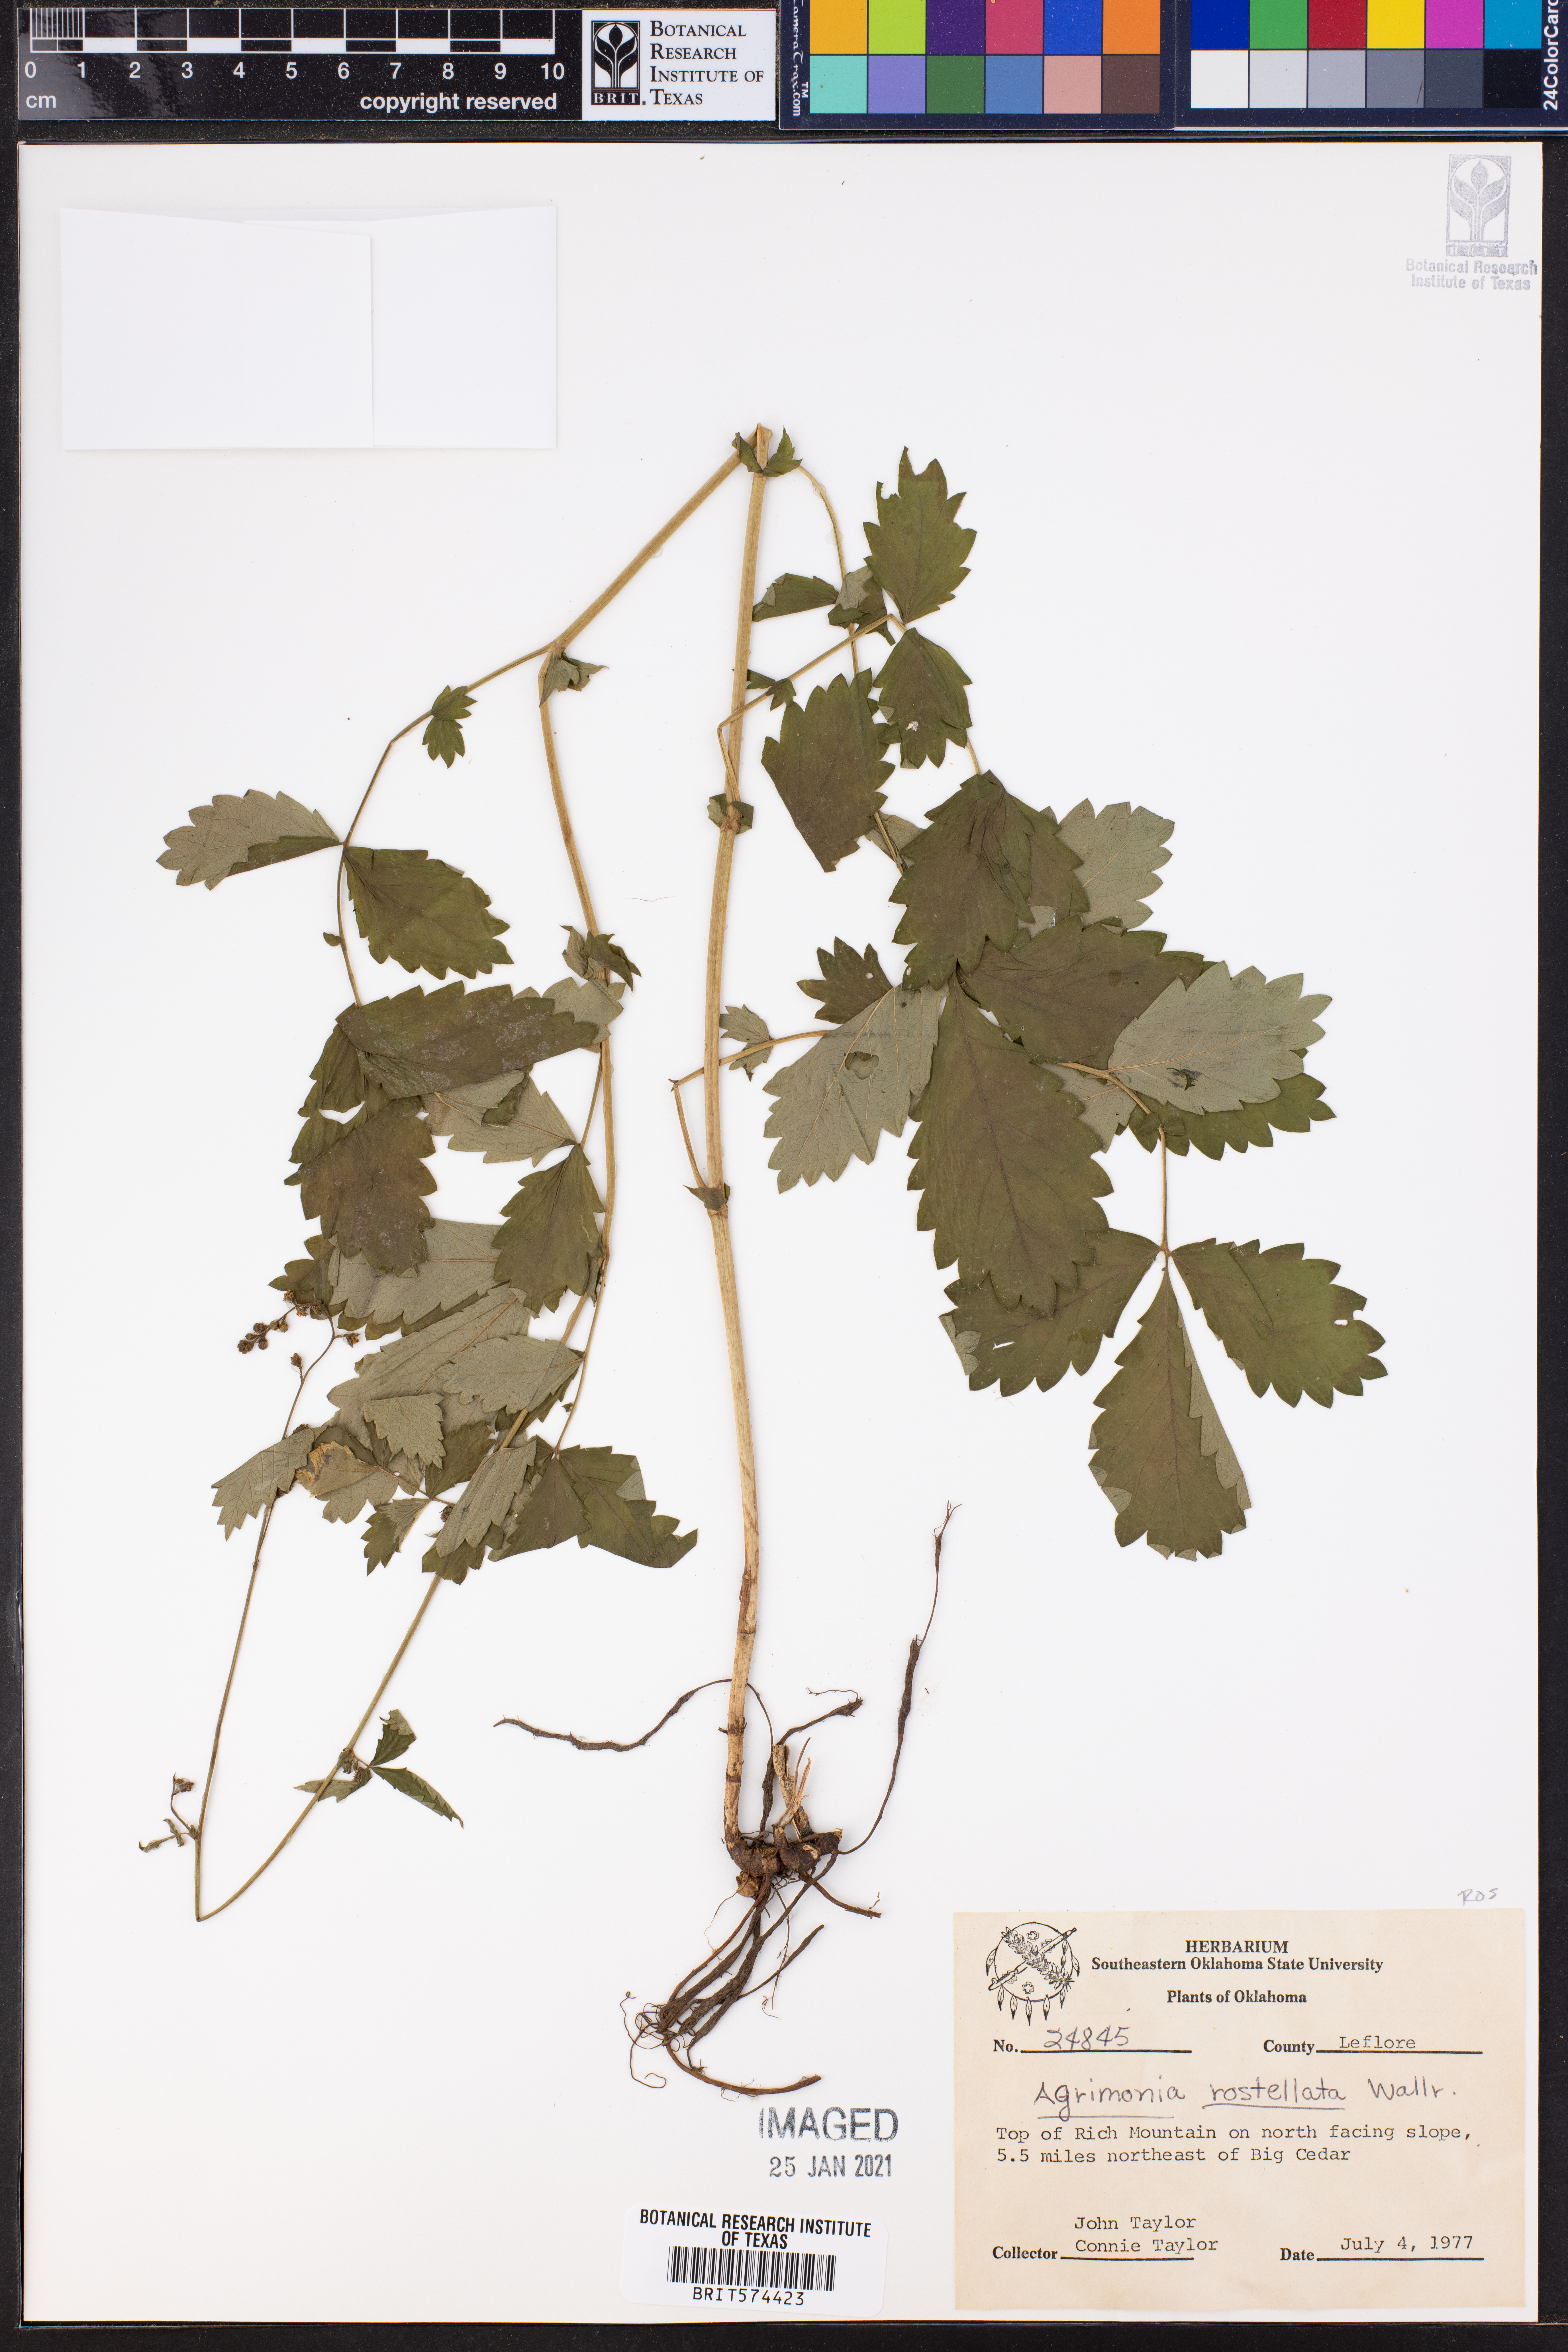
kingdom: Plantae
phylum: Tracheophyta
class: Magnoliopsida
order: Rosales
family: Rosaceae
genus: Agrimonia
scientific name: Agrimonia rostellata
